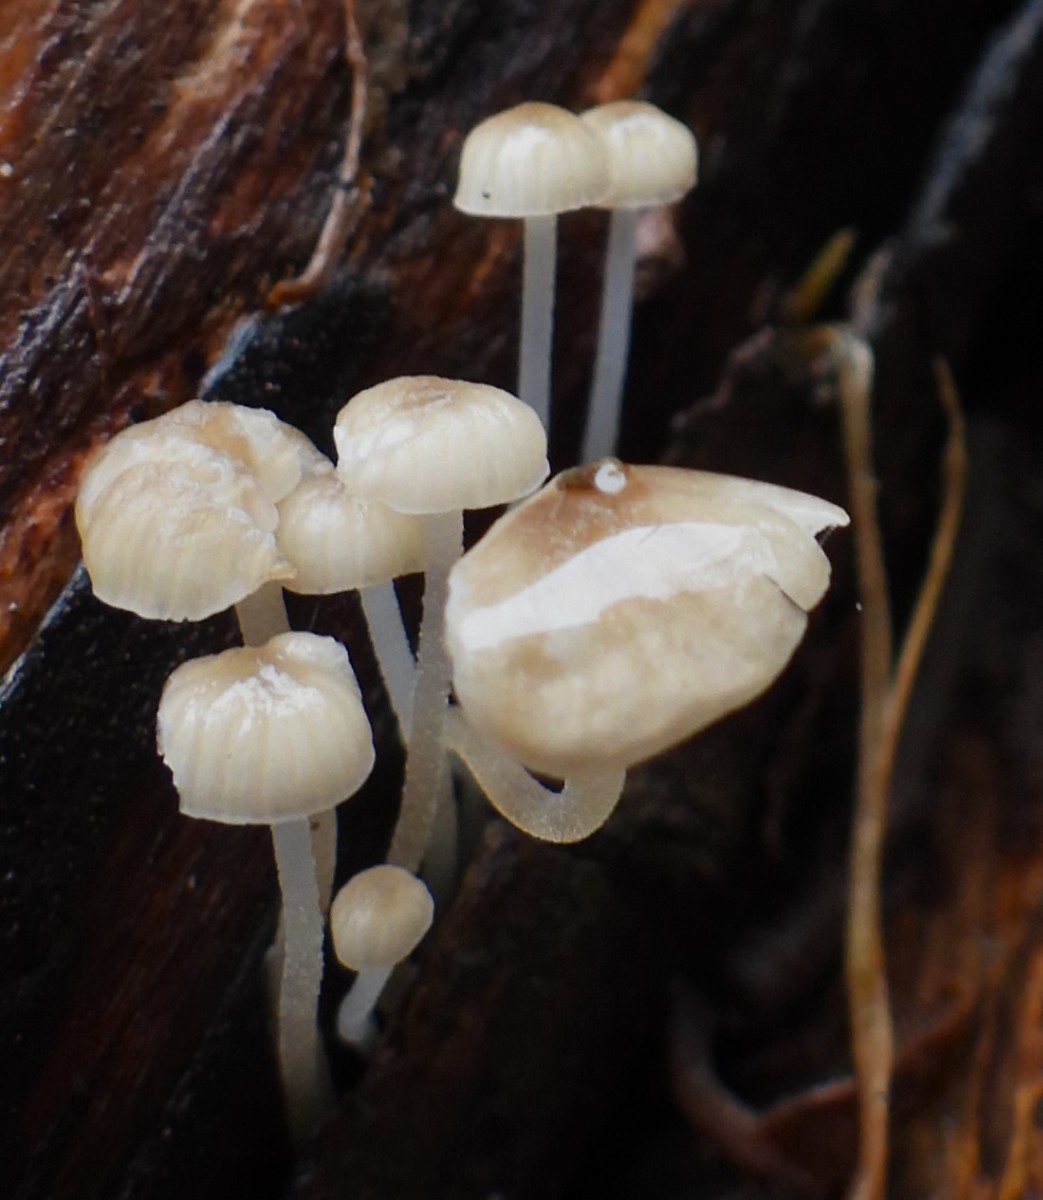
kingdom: Fungi
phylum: Basidiomycota
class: Agaricomycetes
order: Agaricales
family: Porotheleaceae
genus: Phloeomana
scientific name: Phloeomana speirea
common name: kvist-huesvamp
